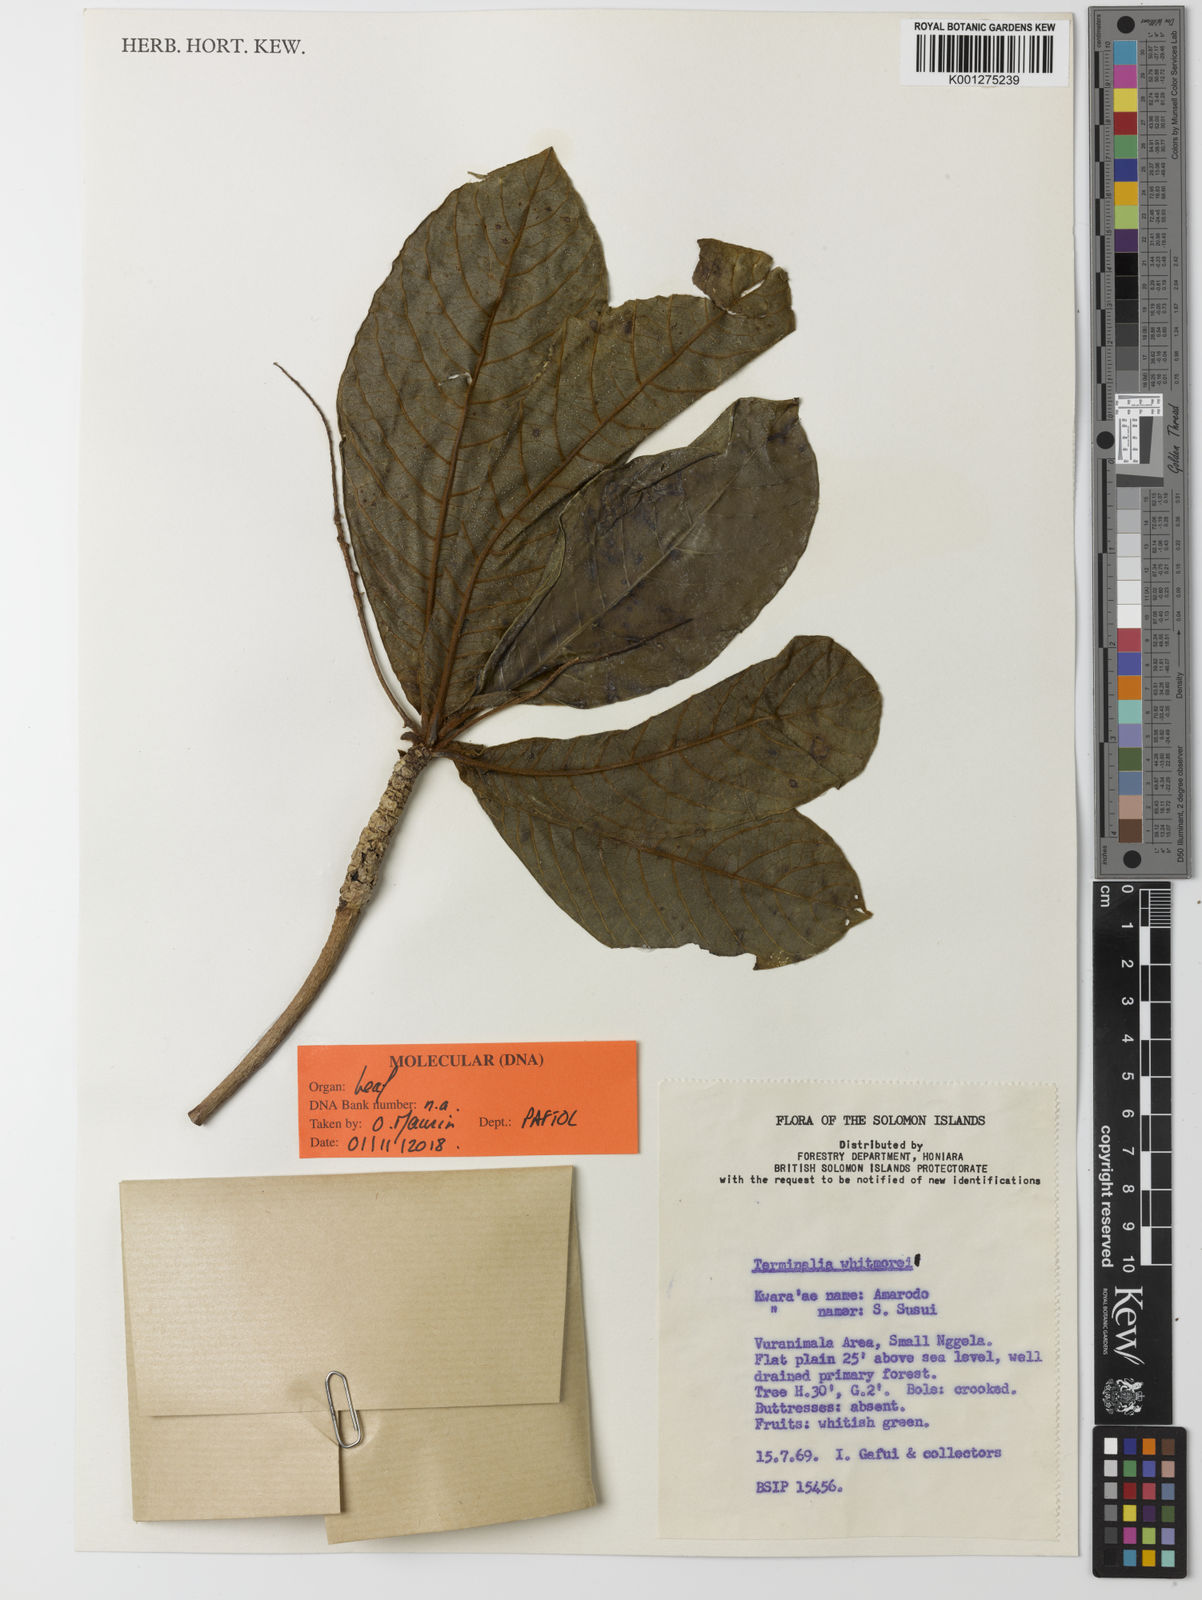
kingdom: Plantae
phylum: Tracheophyta
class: Magnoliopsida
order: Myrtales
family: Combretaceae
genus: Terminalia
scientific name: Terminalia whitmorei
